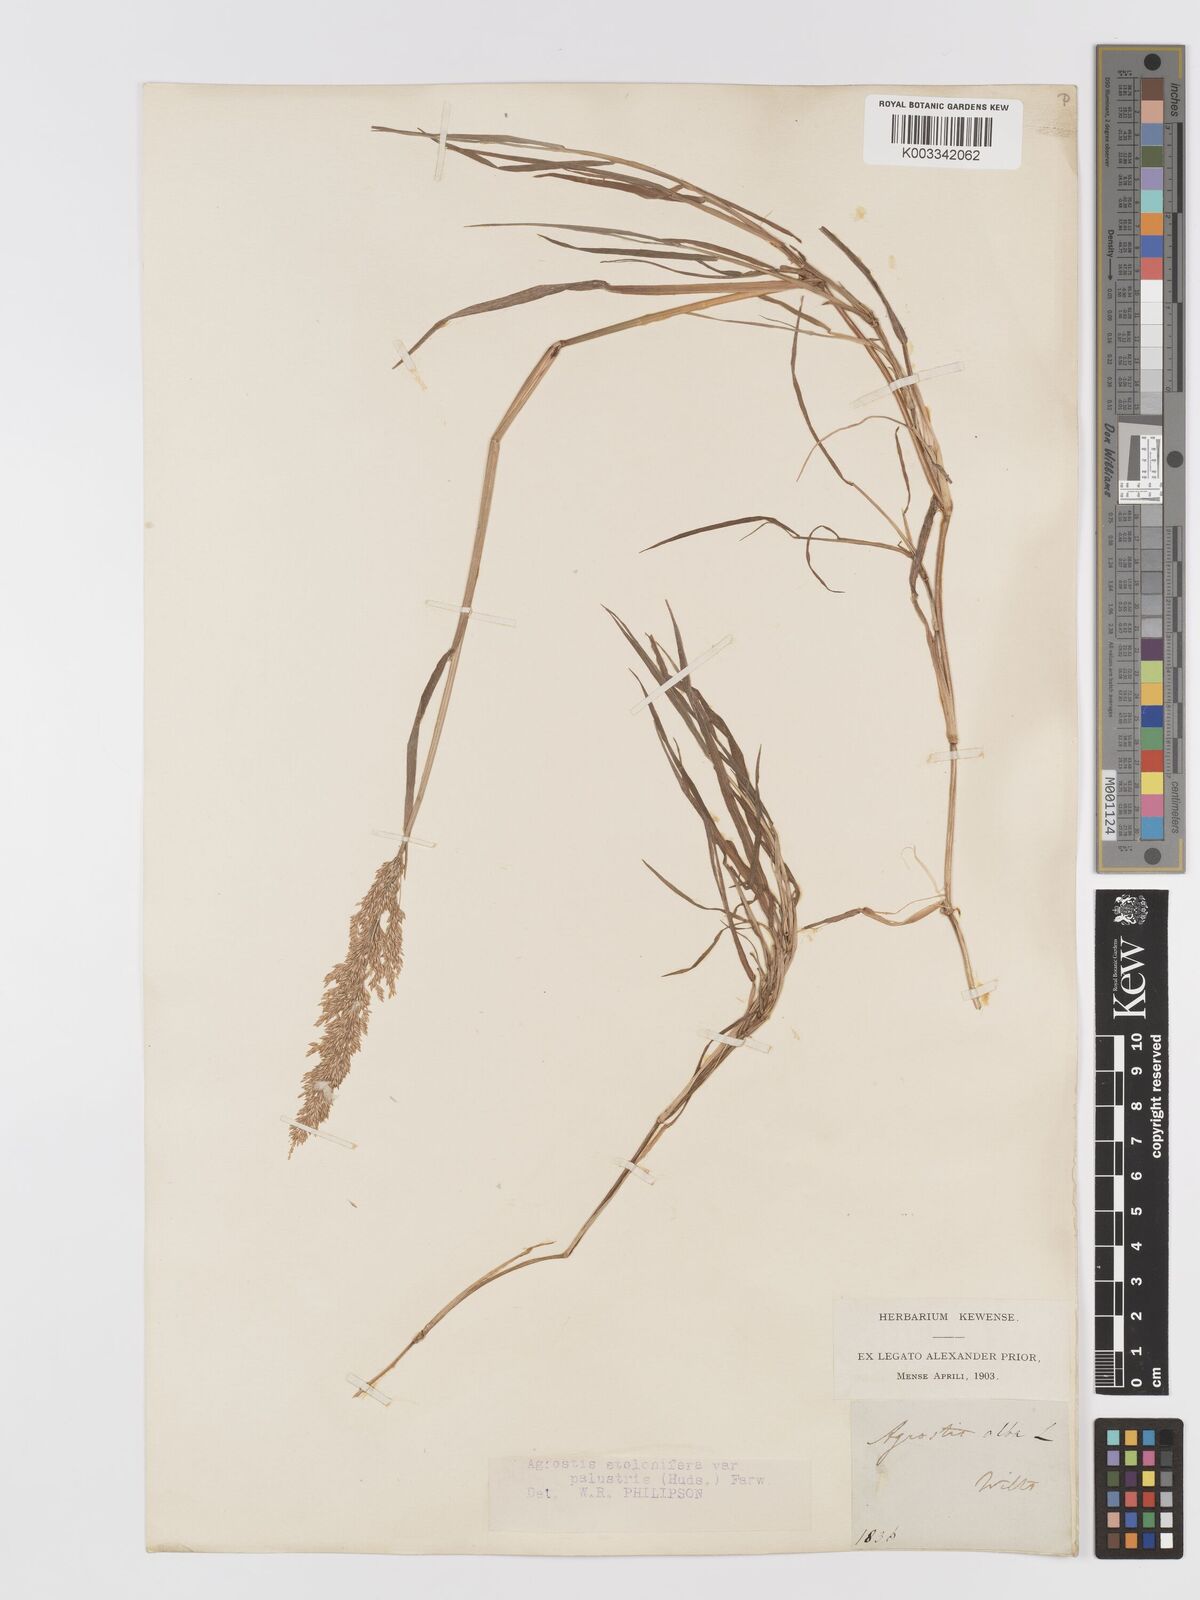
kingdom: Plantae
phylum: Tracheophyta
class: Liliopsida
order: Poales
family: Poaceae
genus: Agrostis
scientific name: Agrostis stolonifera
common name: Creeping bentgrass
